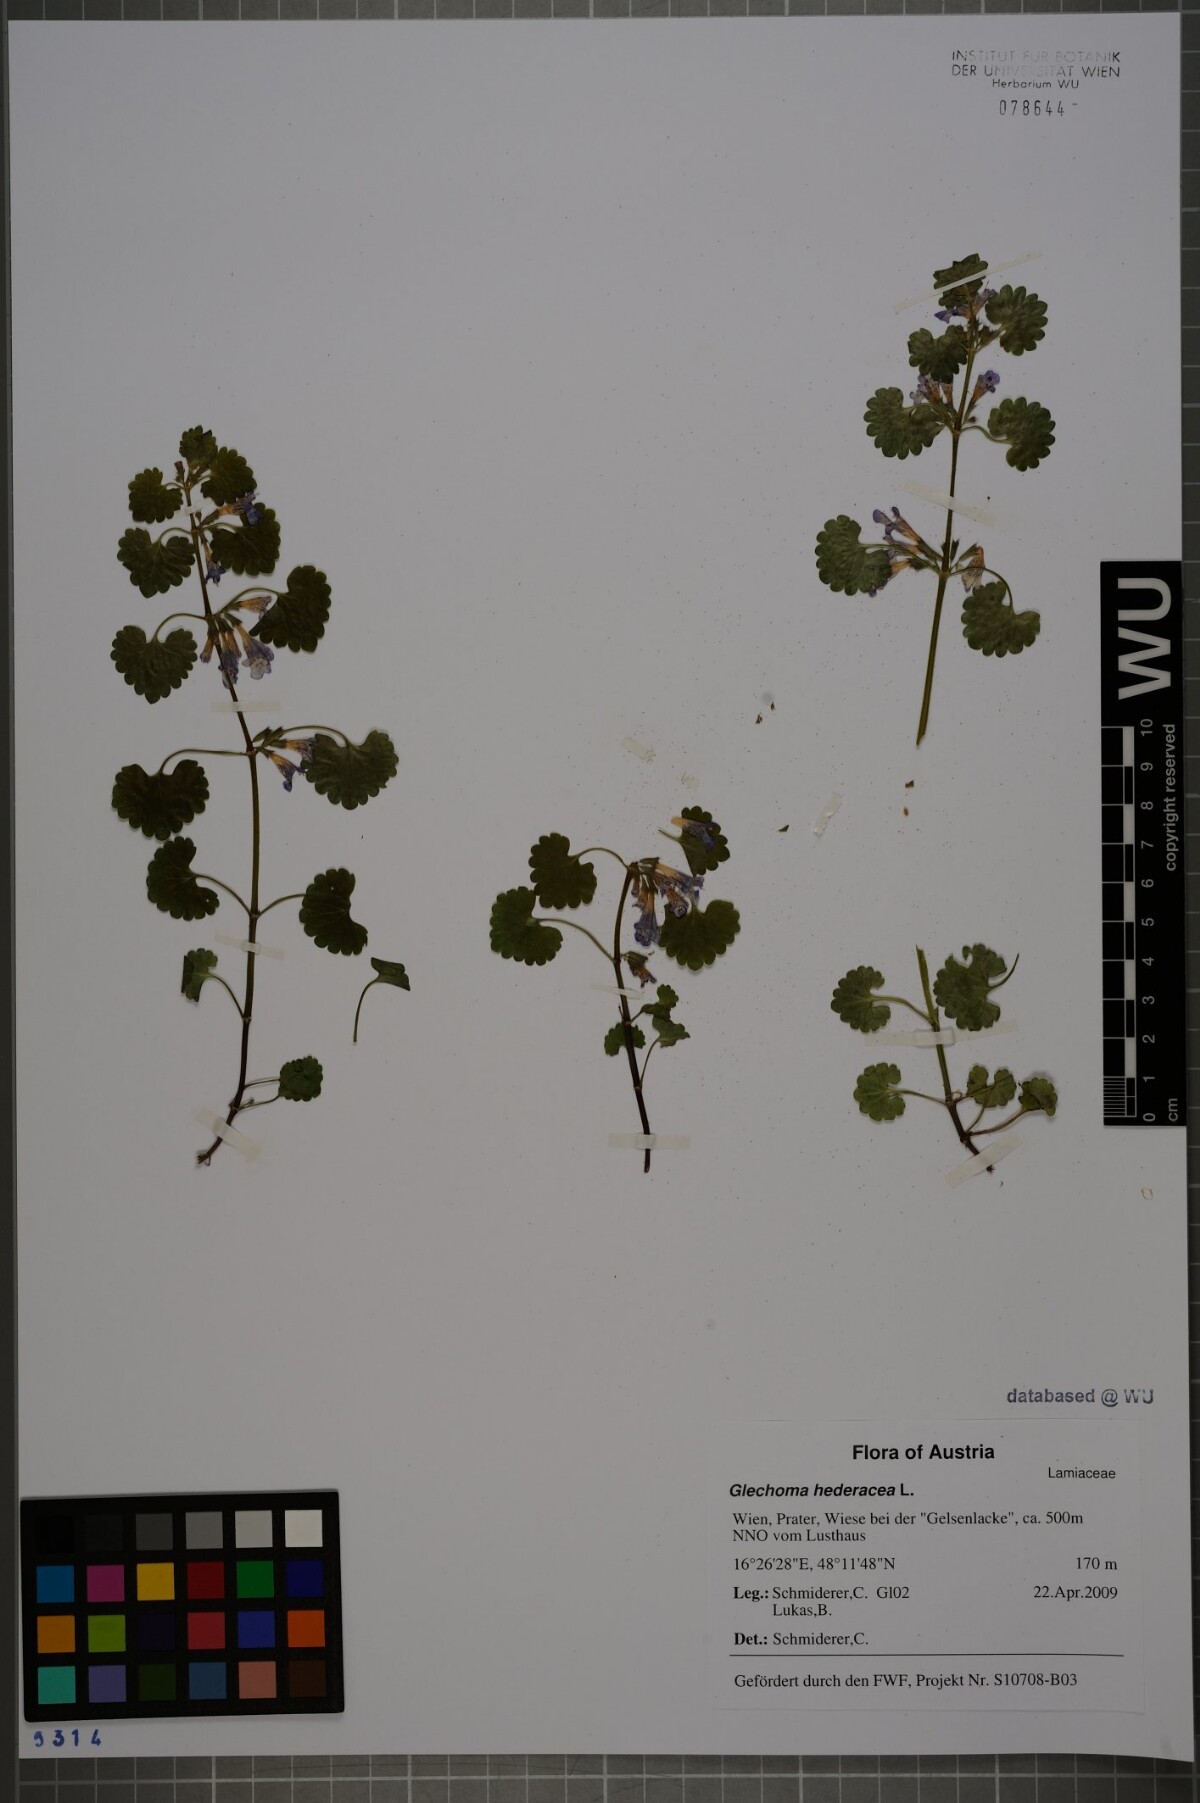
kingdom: Plantae
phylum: Tracheophyta
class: Magnoliopsida
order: Lamiales
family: Lamiaceae
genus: Glechoma
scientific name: Glechoma hederacea
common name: Ground ivy
